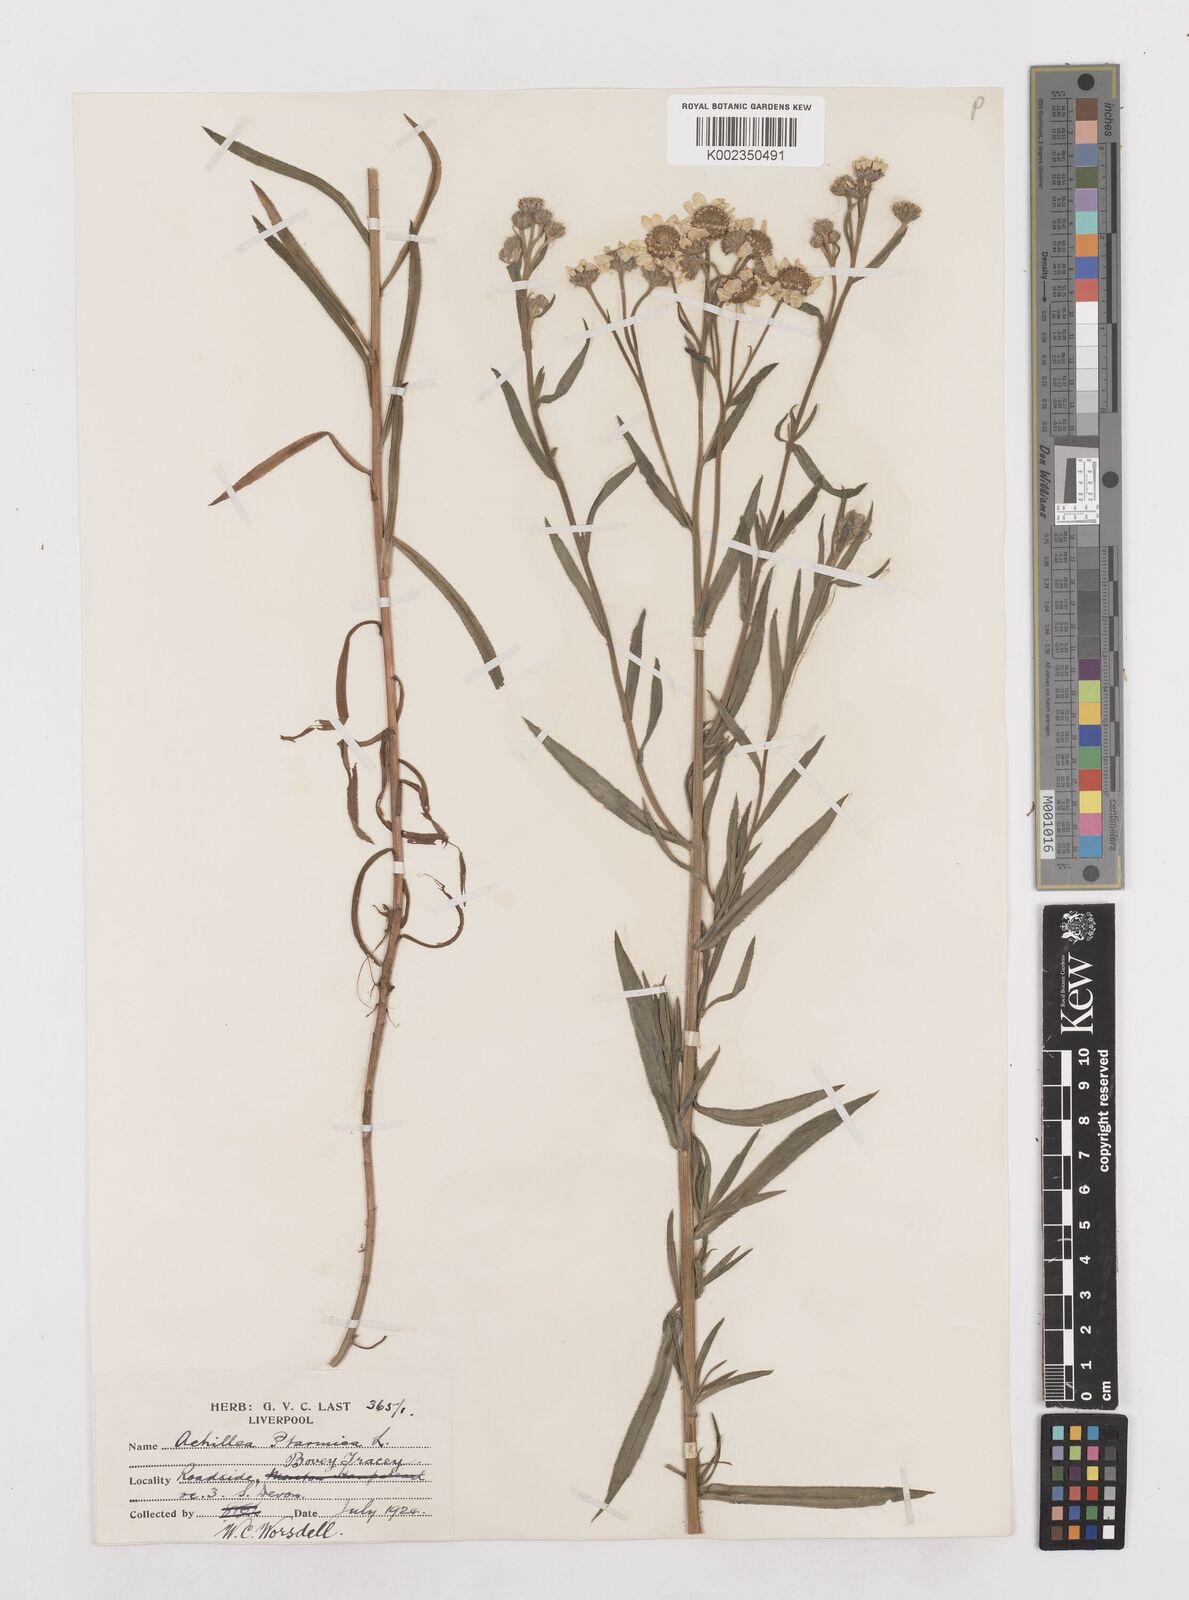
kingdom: Plantae
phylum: Tracheophyta
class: Magnoliopsida
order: Asterales
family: Asteraceae
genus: Achillea
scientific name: Achillea ptarmica
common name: Sneezeweed
